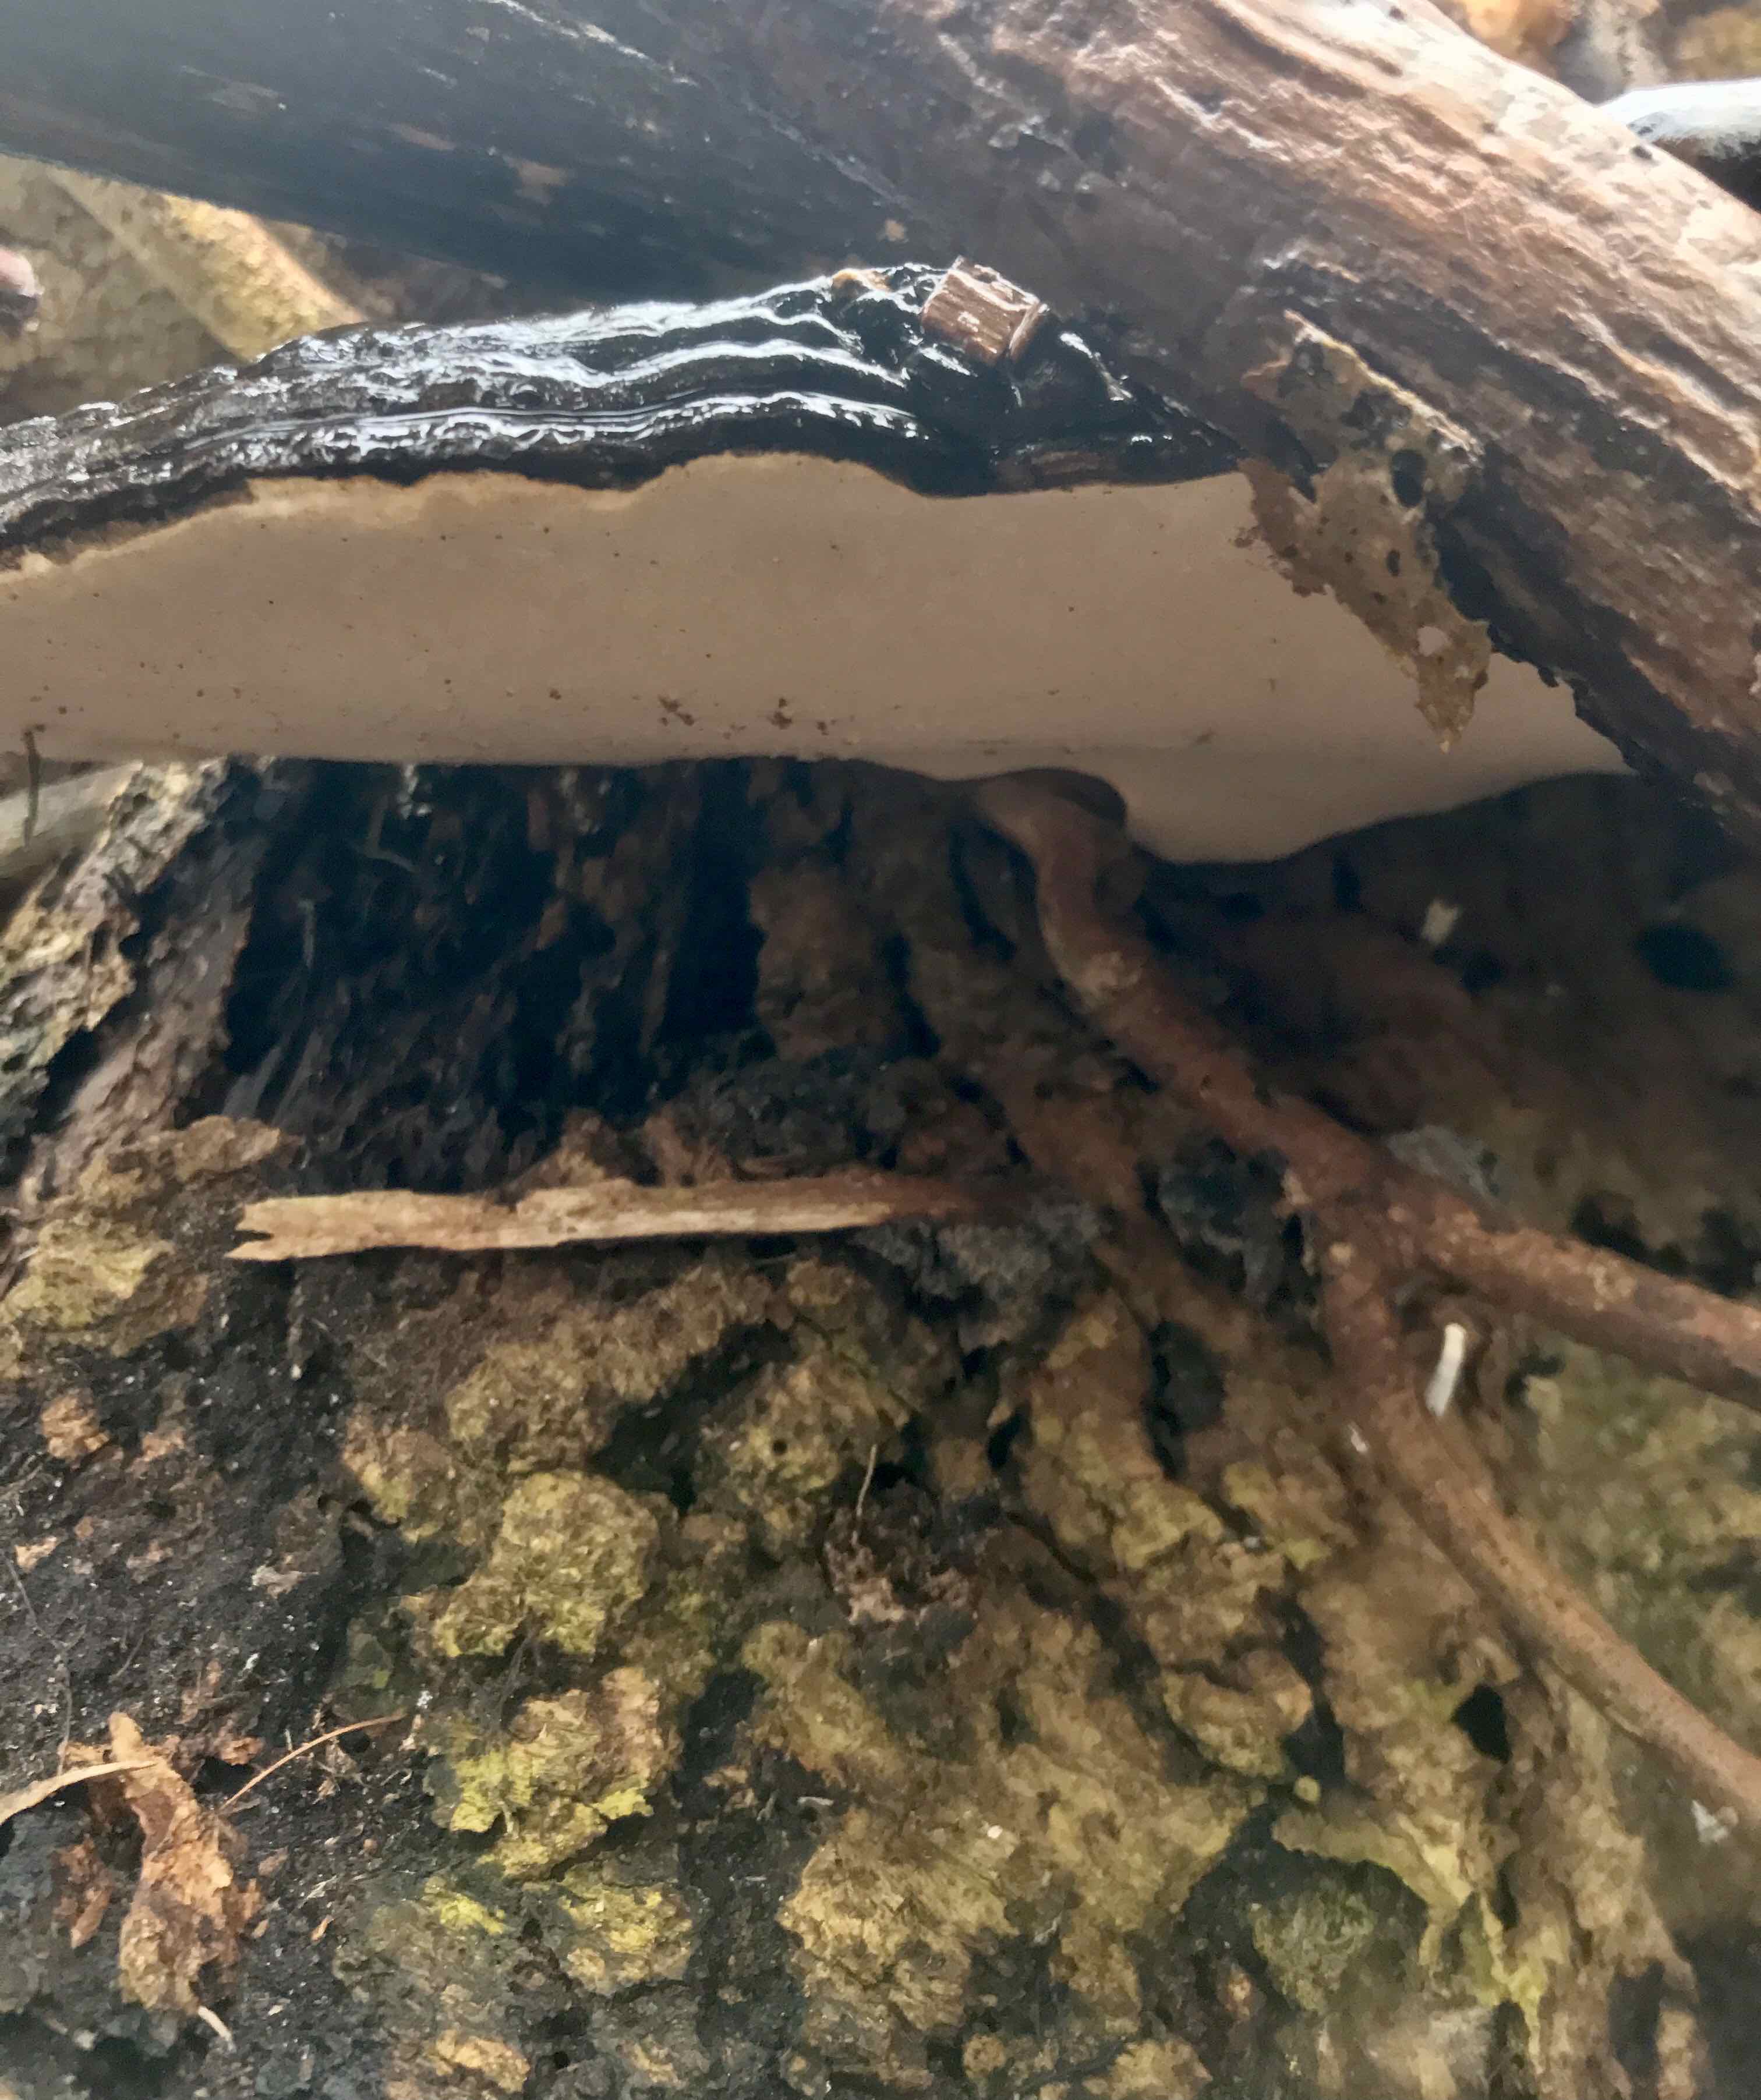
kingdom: Fungi
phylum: Basidiomycota
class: Agaricomycetes
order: Polyporales
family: Polyporaceae
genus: Ganoderma
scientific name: Ganoderma pfeifferi
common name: kobberrød lakporesvamp
